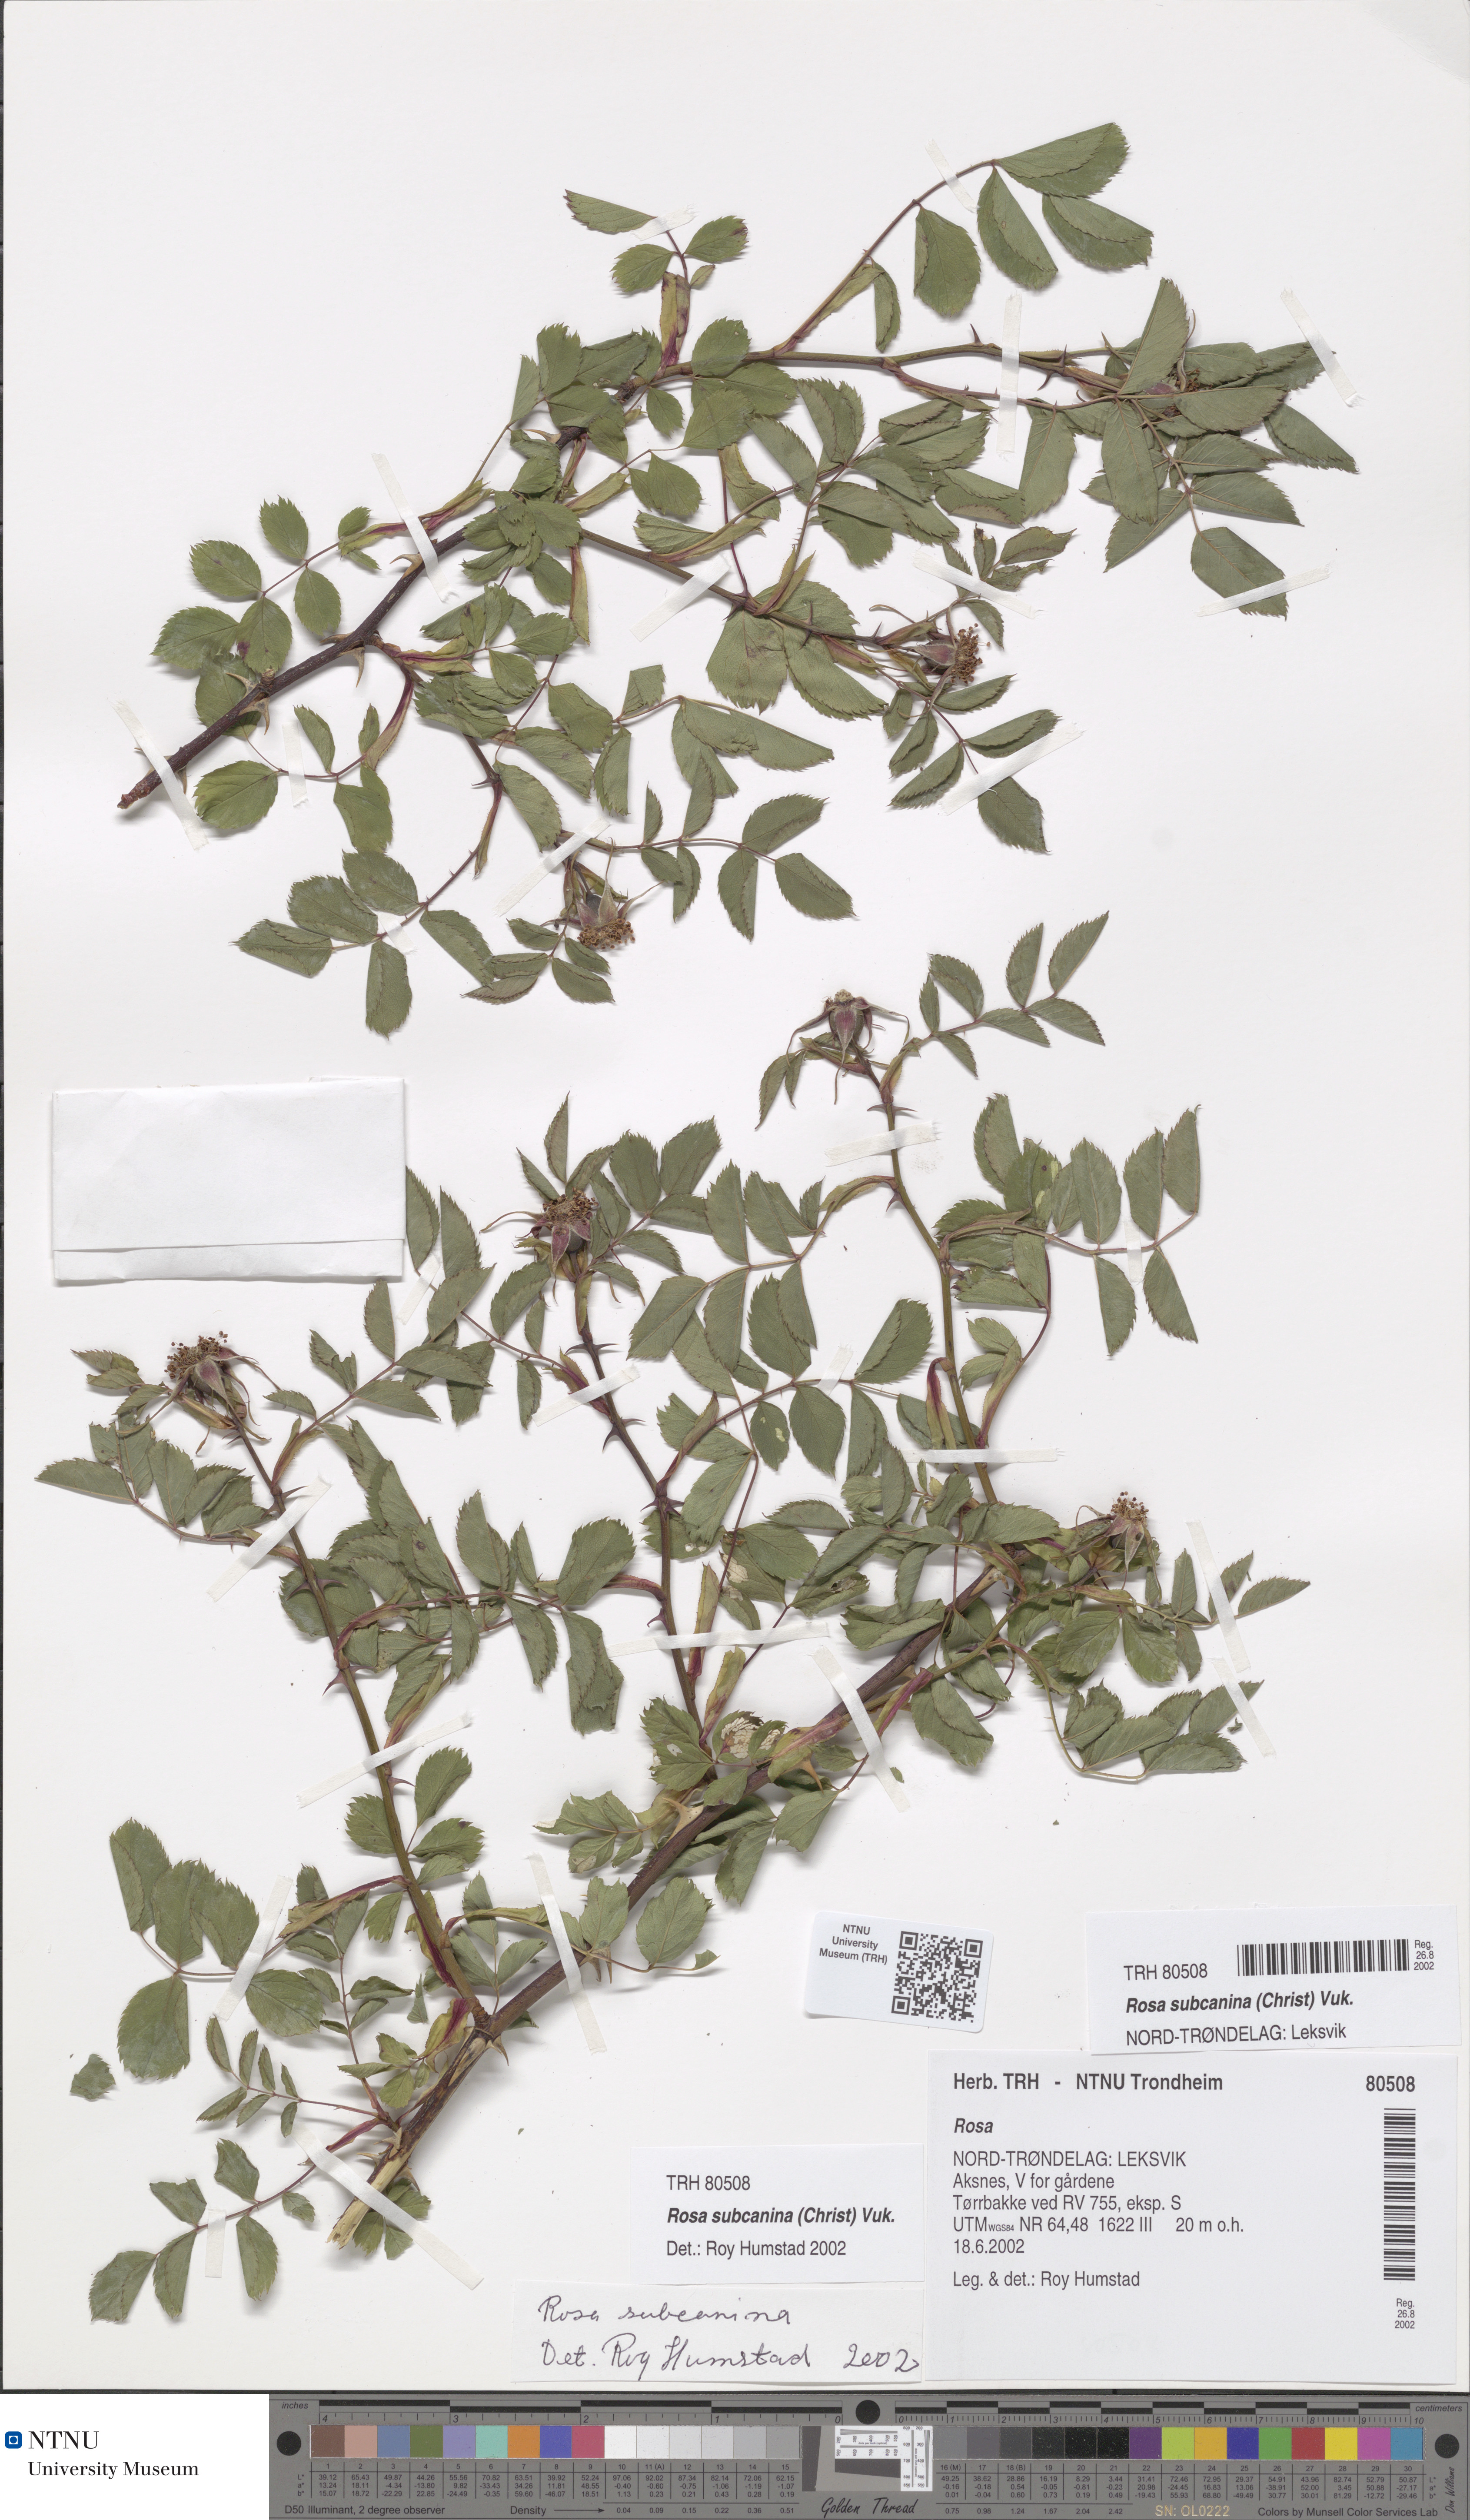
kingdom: Plantae
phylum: Tracheophyta
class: Magnoliopsida
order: Rosales
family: Rosaceae
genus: Rosa
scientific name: Rosa subcanina
